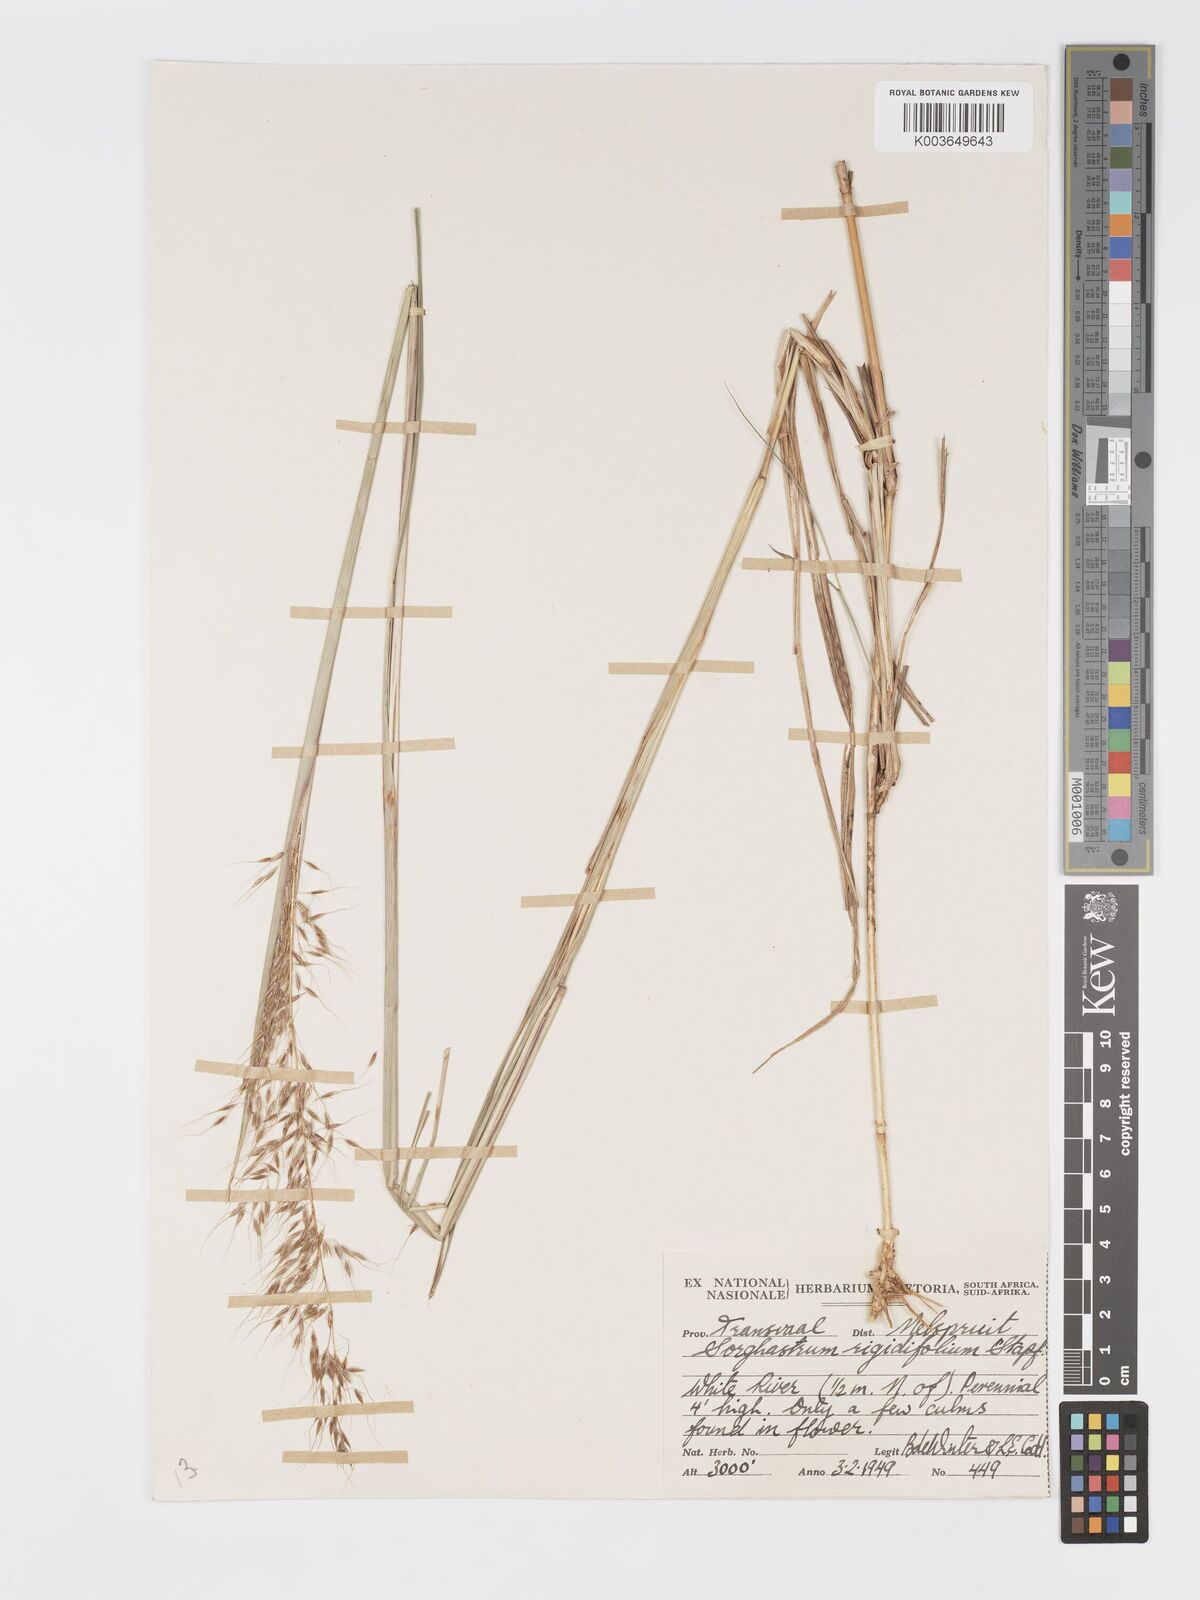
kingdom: Plantae
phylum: Tracheophyta
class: Liliopsida
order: Poales
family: Poaceae
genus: Sorghastrum
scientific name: Sorghastrum stipoides
